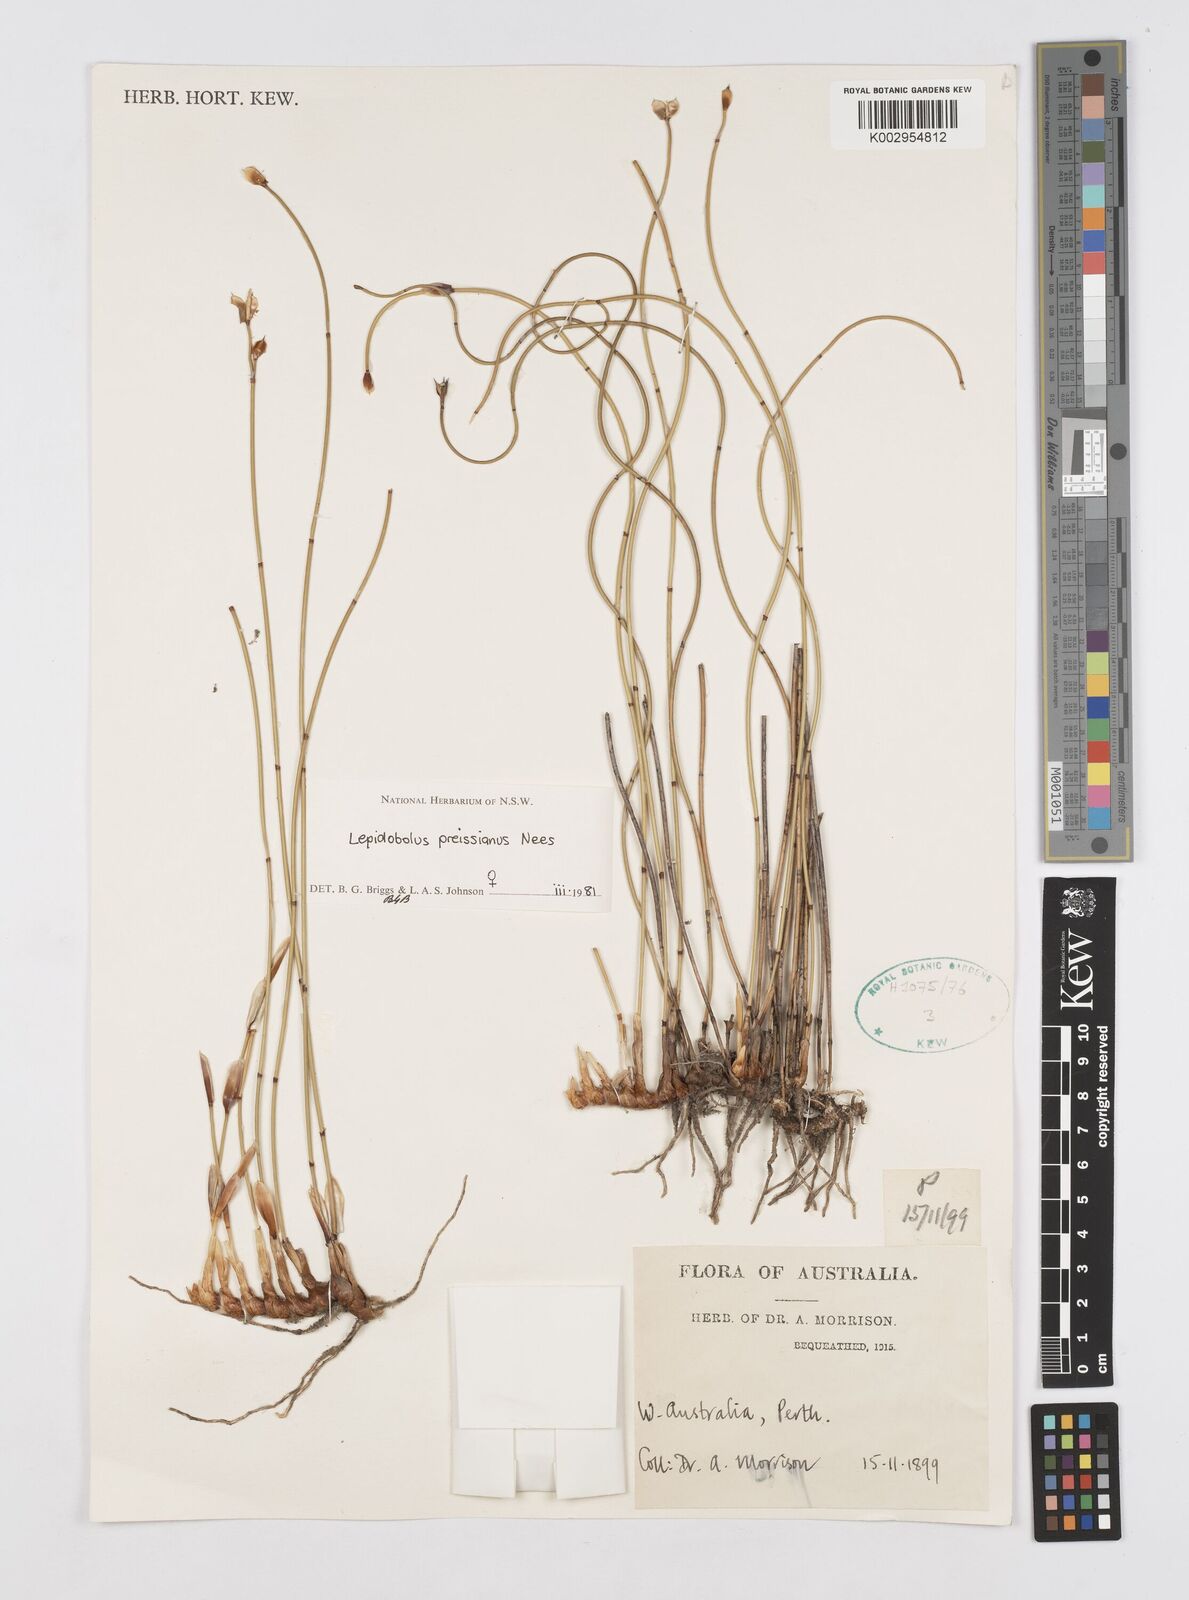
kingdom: Plantae
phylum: Tracheophyta
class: Liliopsida
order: Poales
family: Restionaceae
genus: Lepidobolus
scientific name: Lepidobolus preissianus
